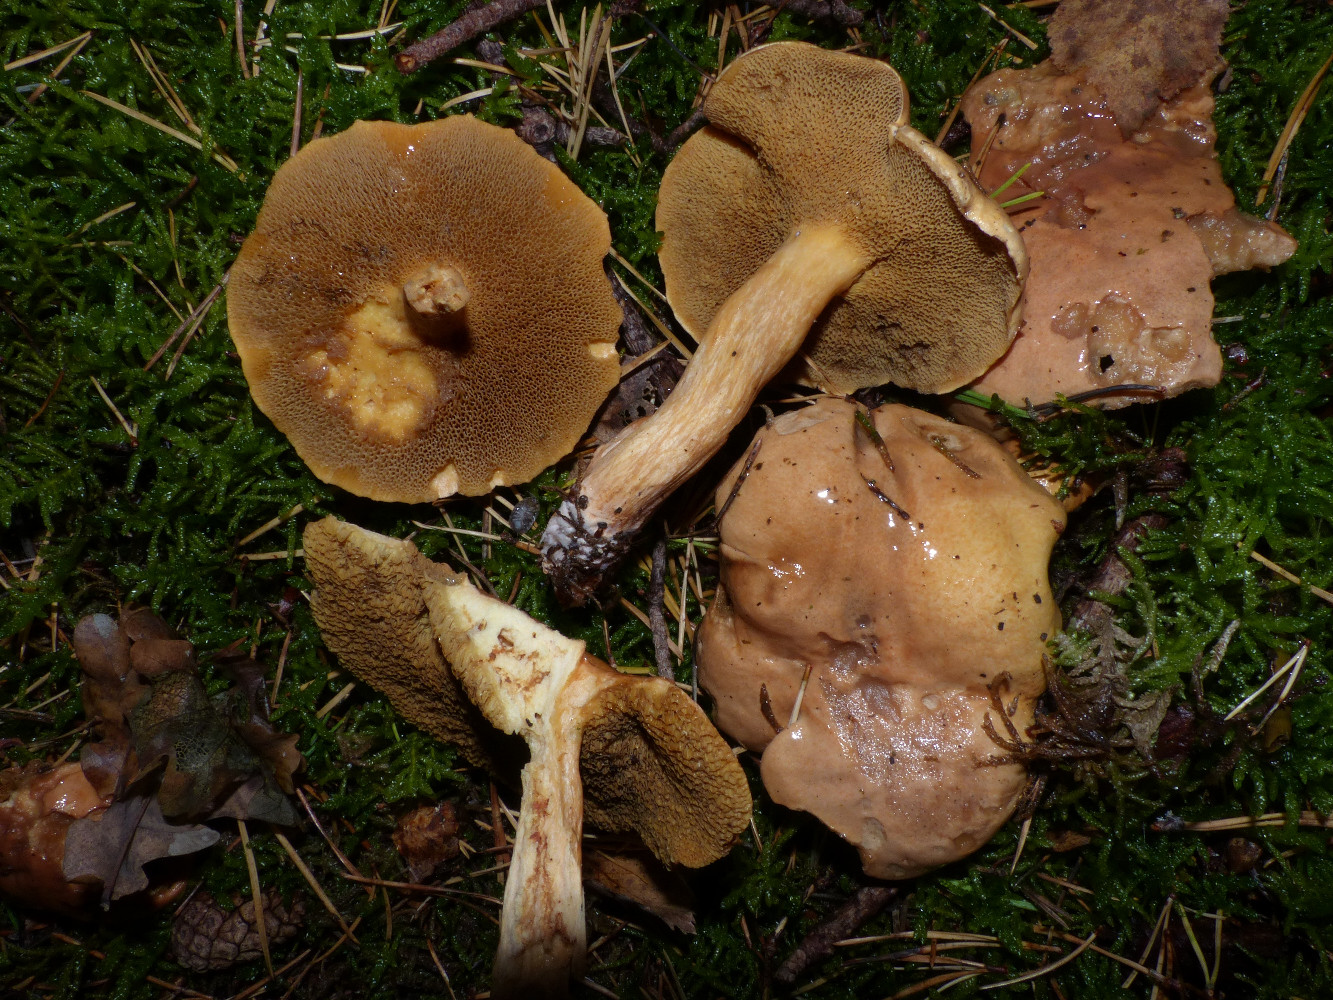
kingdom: Fungi
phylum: Basidiomycota
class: Agaricomycetes
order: Boletales
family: Suillaceae
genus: Suillus
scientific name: Suillus bovinus
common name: grovporet slimrørhat
